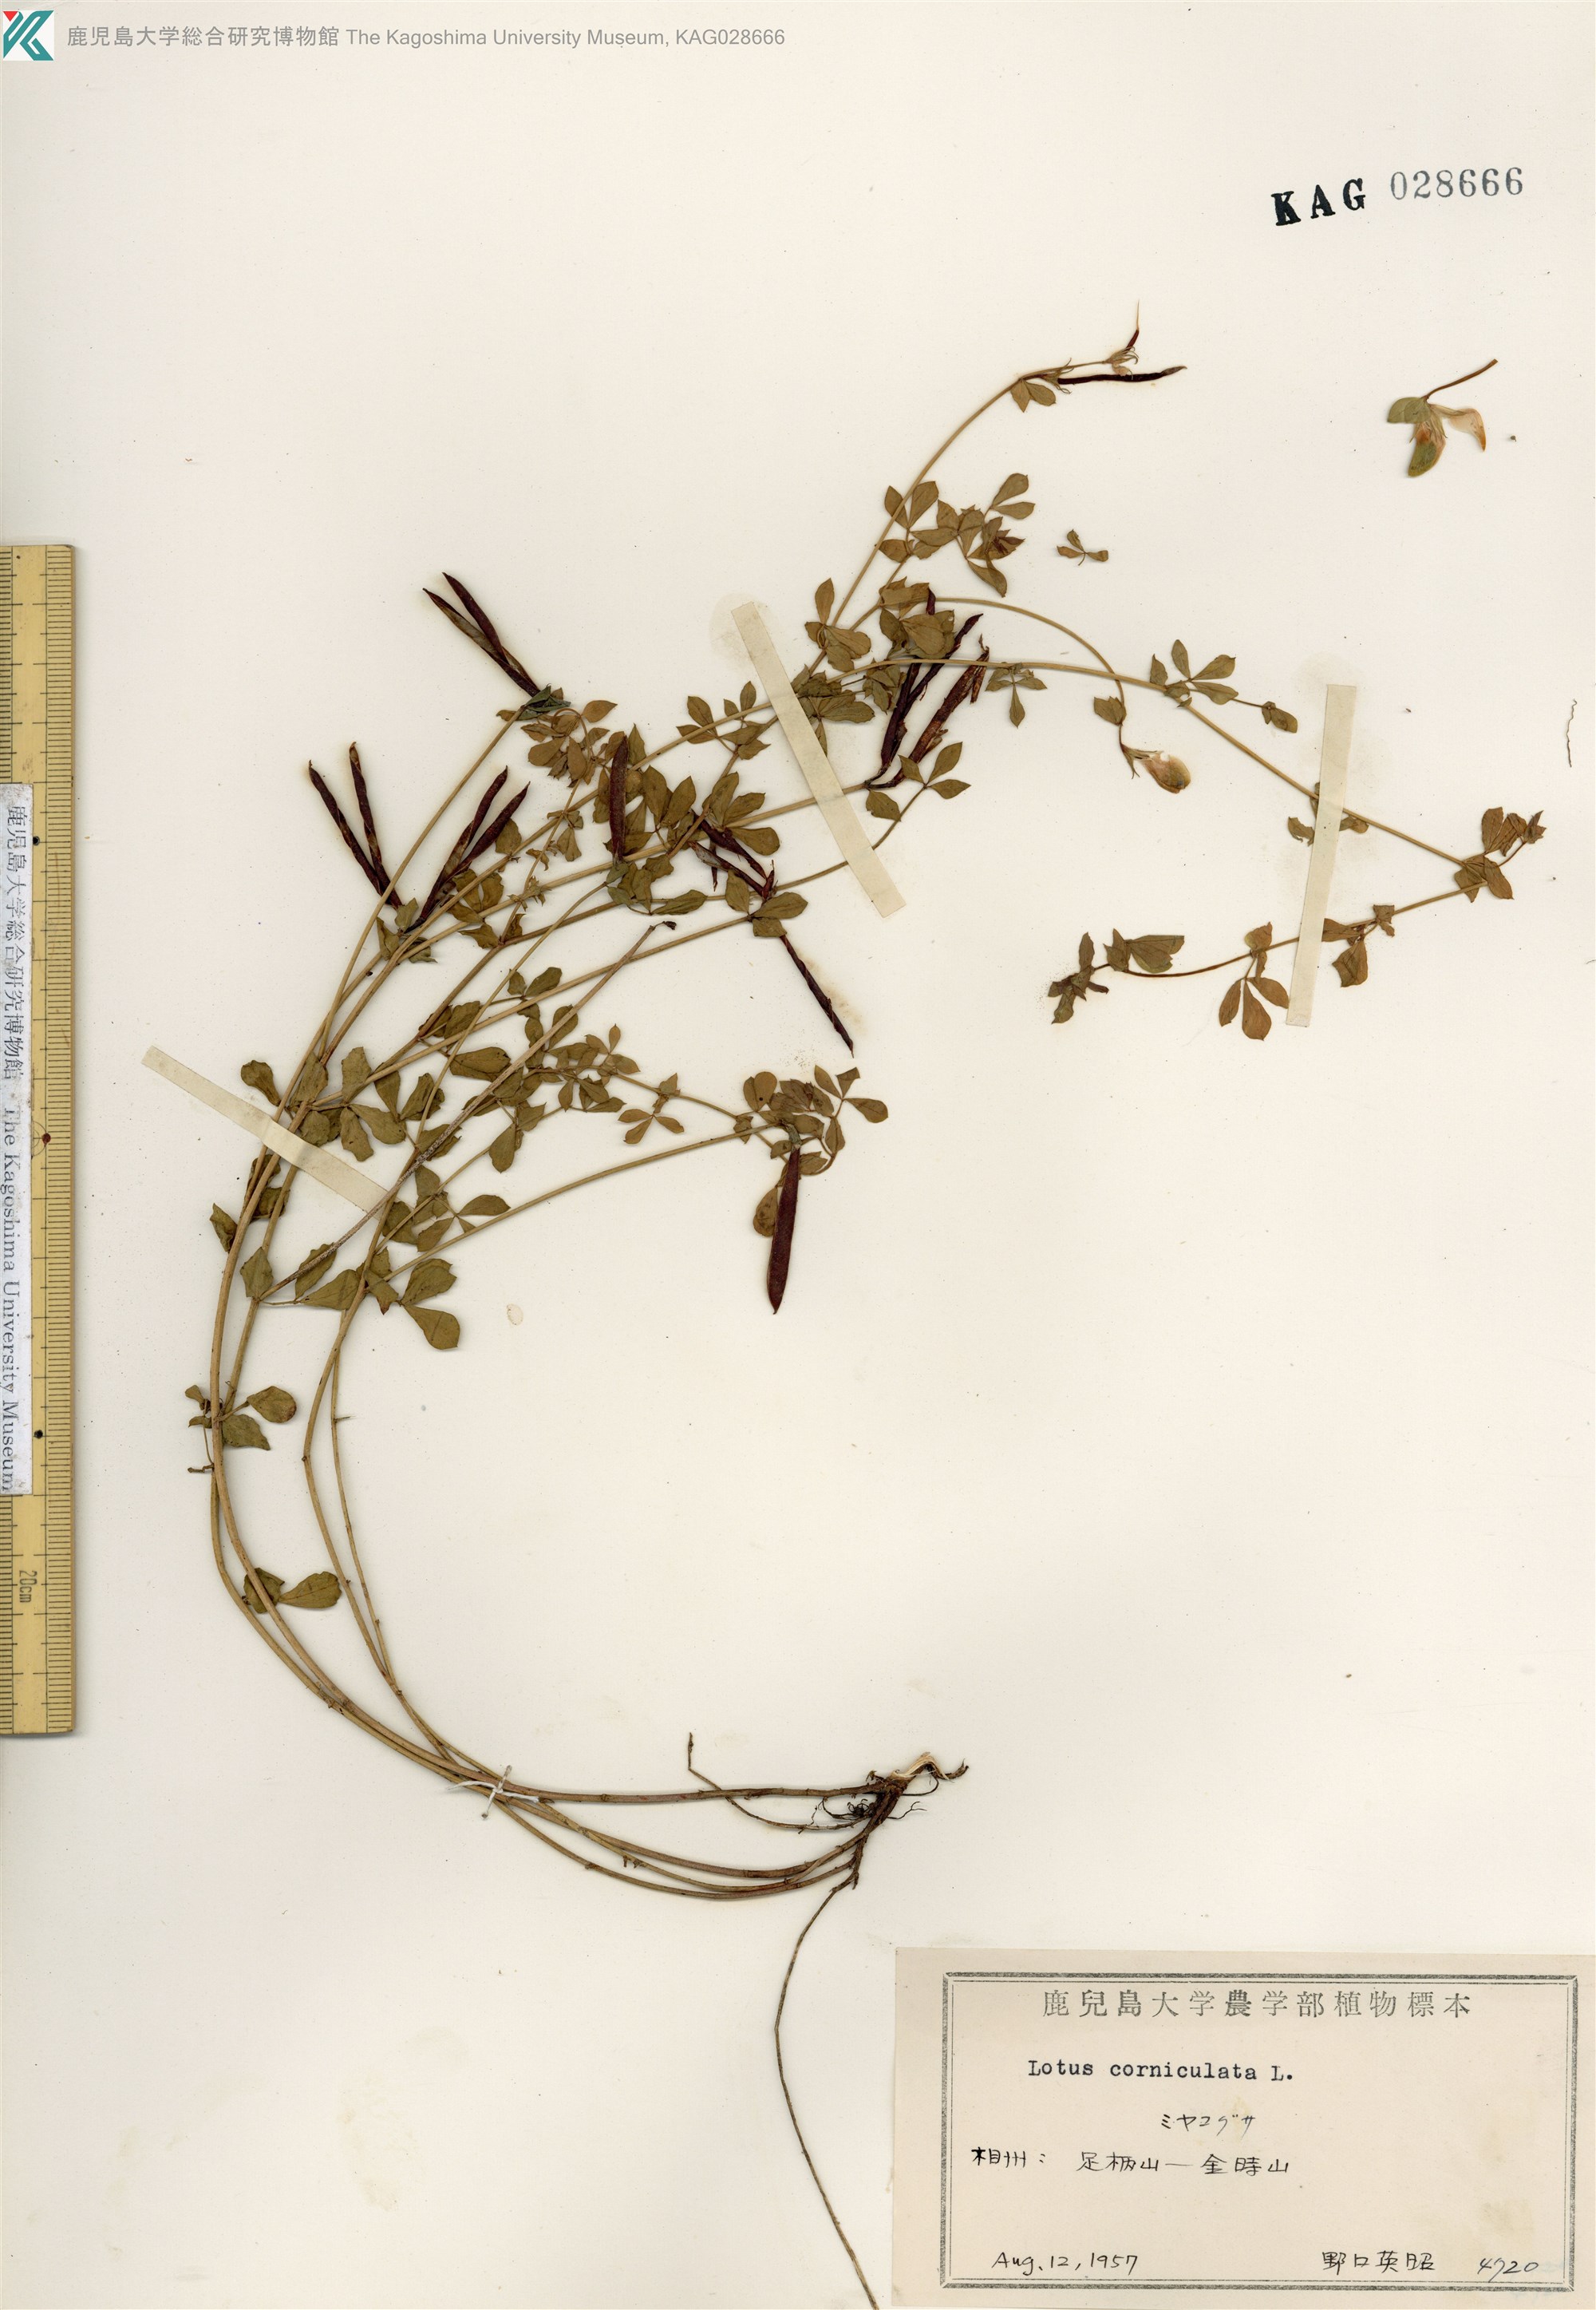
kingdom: Plantae
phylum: Tracheophyta
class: Magnoliopsida
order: Fabales
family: Fabaceae
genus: Lotus
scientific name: Lotus japonicus
